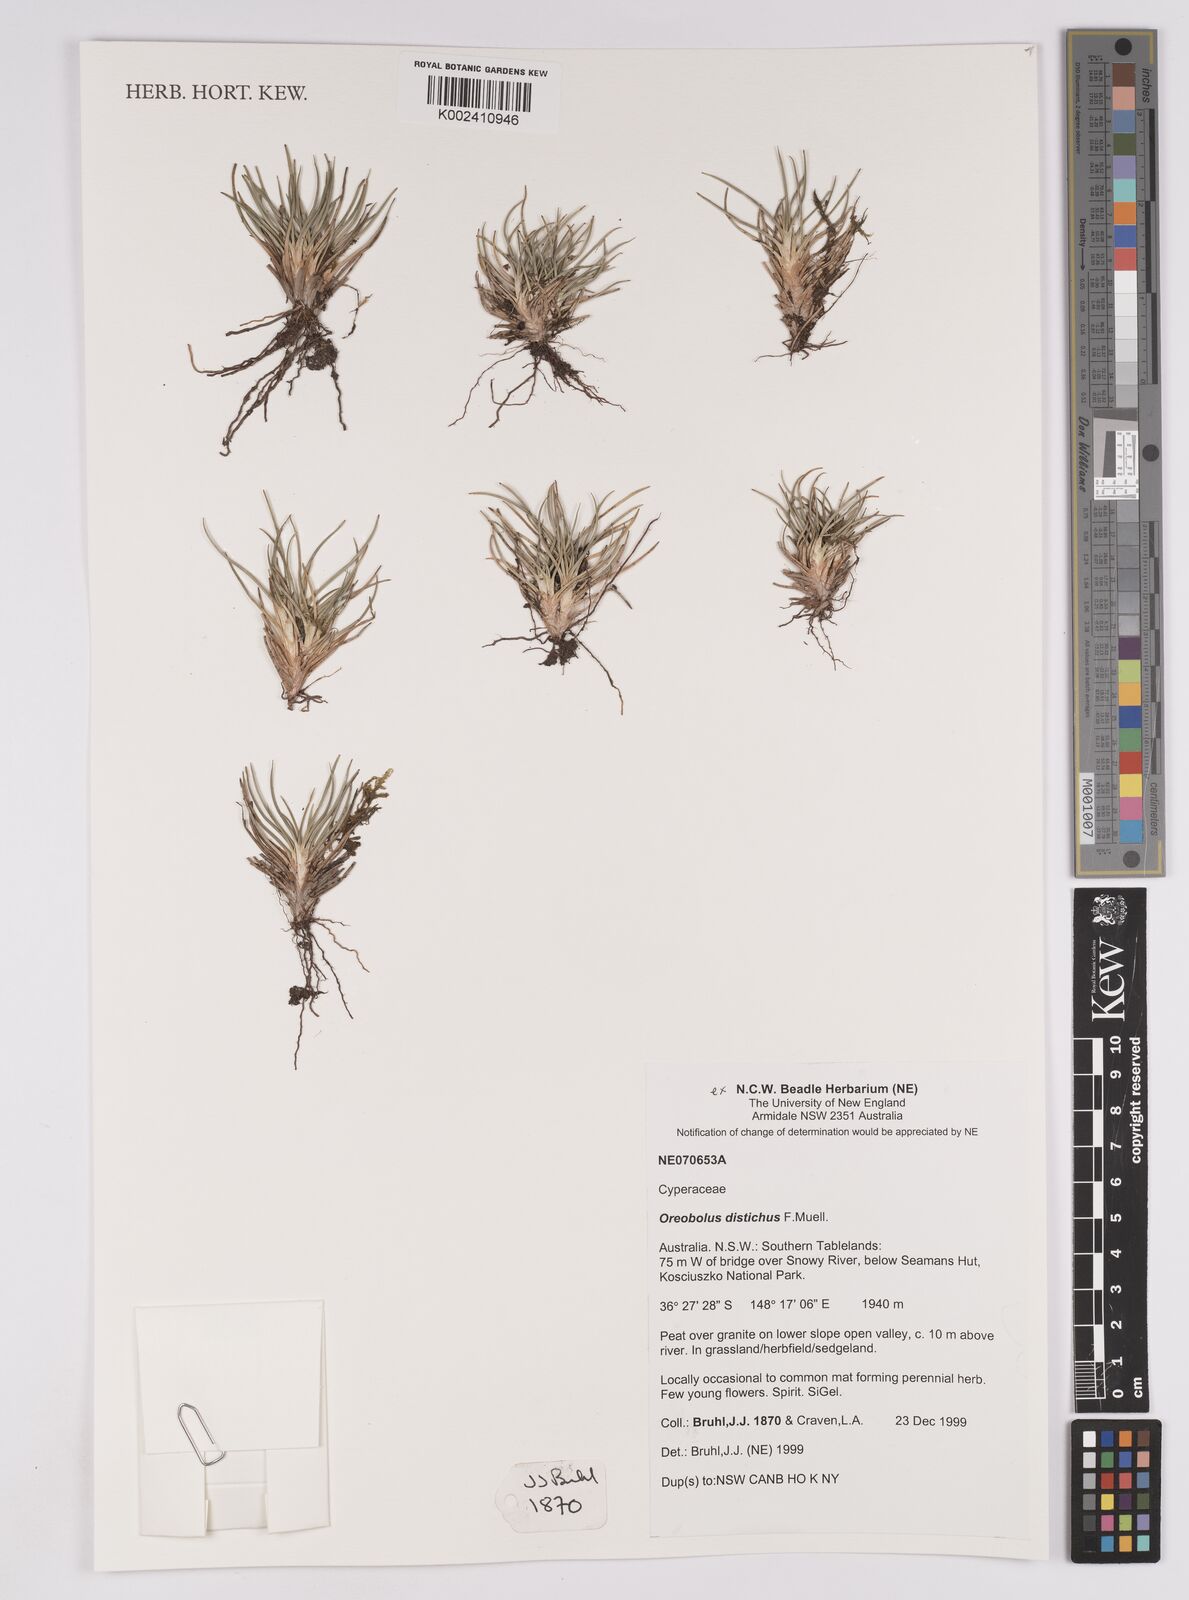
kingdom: Plantae
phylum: Tracheophyta
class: Liliopsida
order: Poales
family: Cyperaceae
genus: Oreobolus
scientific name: Oreobolus distichus
